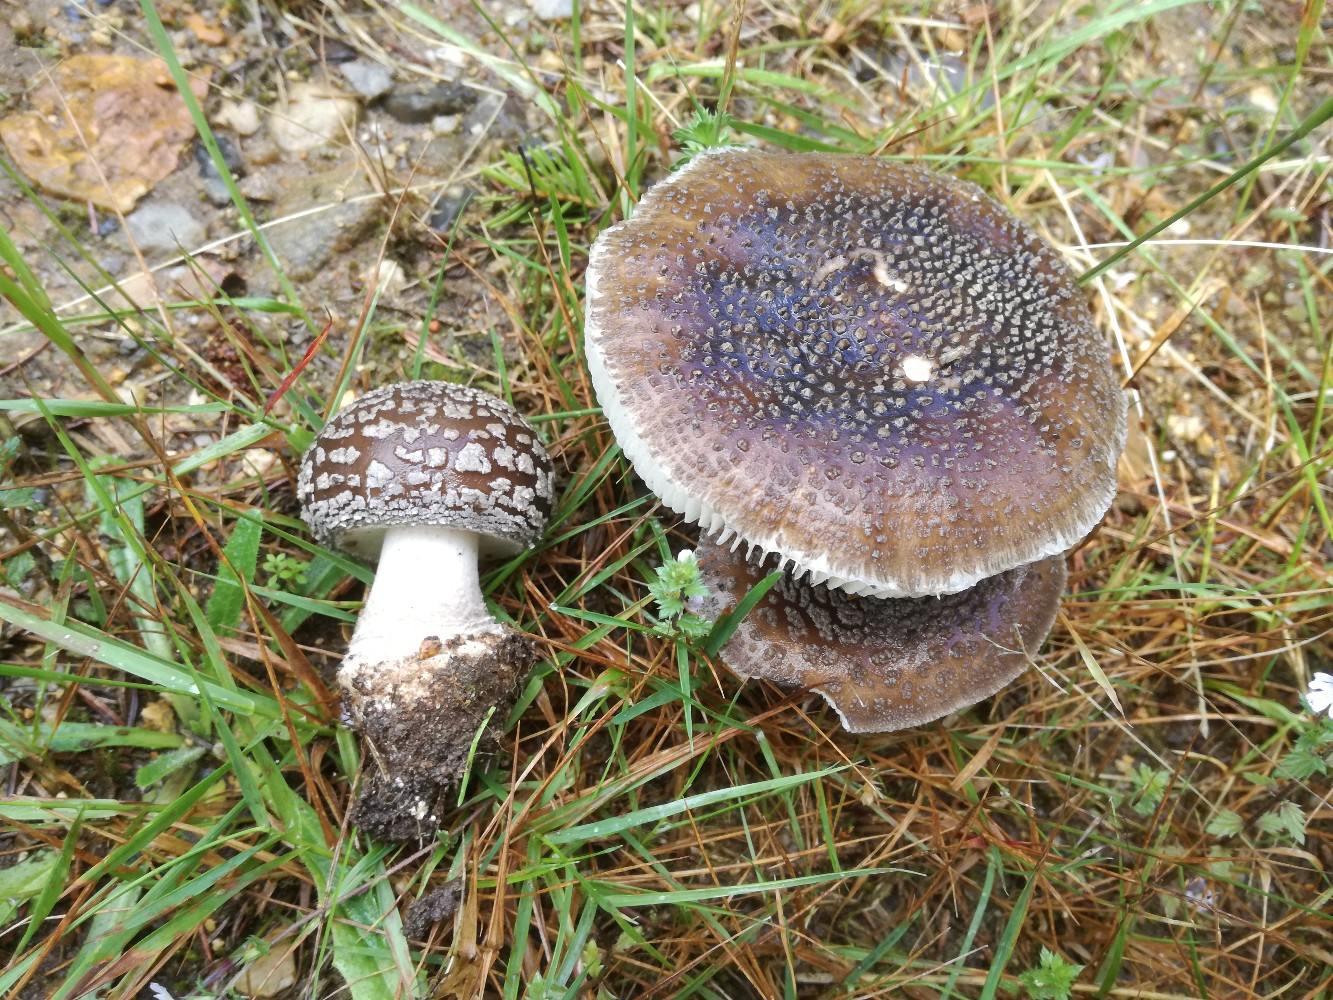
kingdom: Fungi
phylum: Basidiomycota
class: Agaricomycetes
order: Agaricales
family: Amanitaceae
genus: Amanita
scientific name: Amanita
